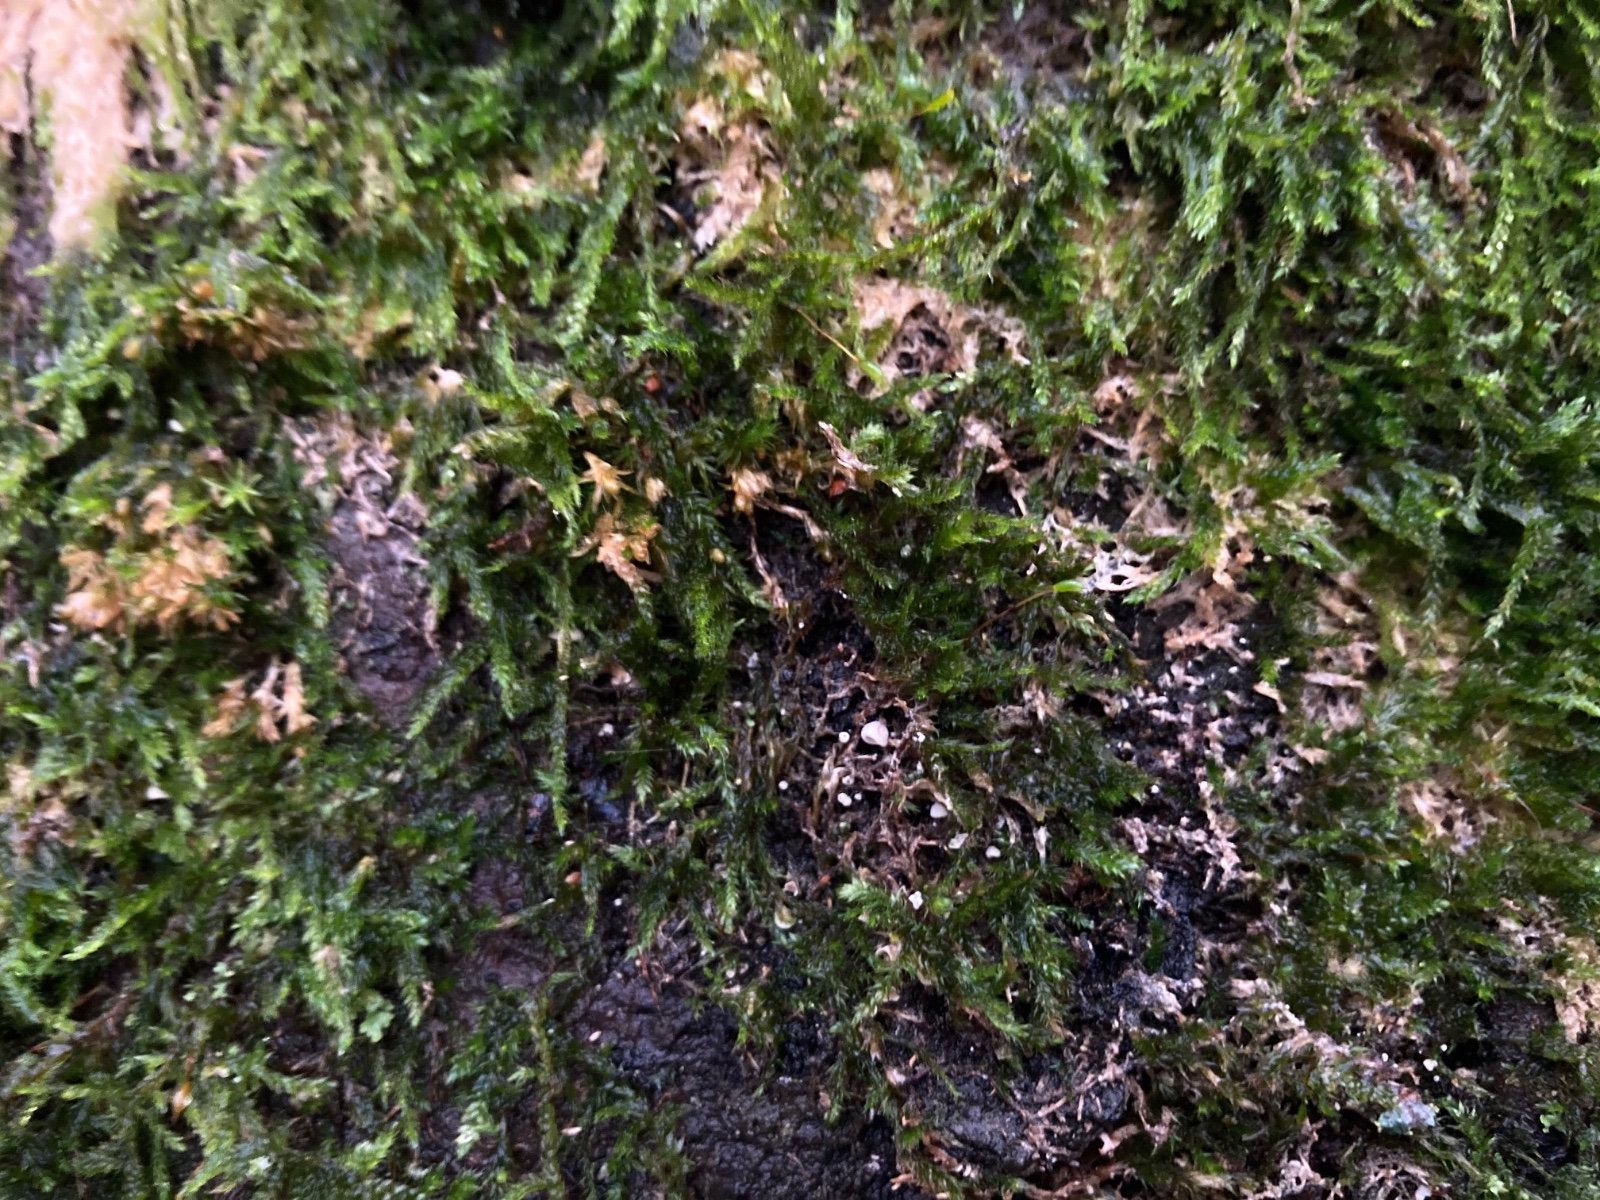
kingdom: Fungi
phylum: Basidiomycota
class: Agaricomycetes
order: Agaricales
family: Chromocyphellaceae
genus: Chromocyphella
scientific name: Chromocyphella muscicola
